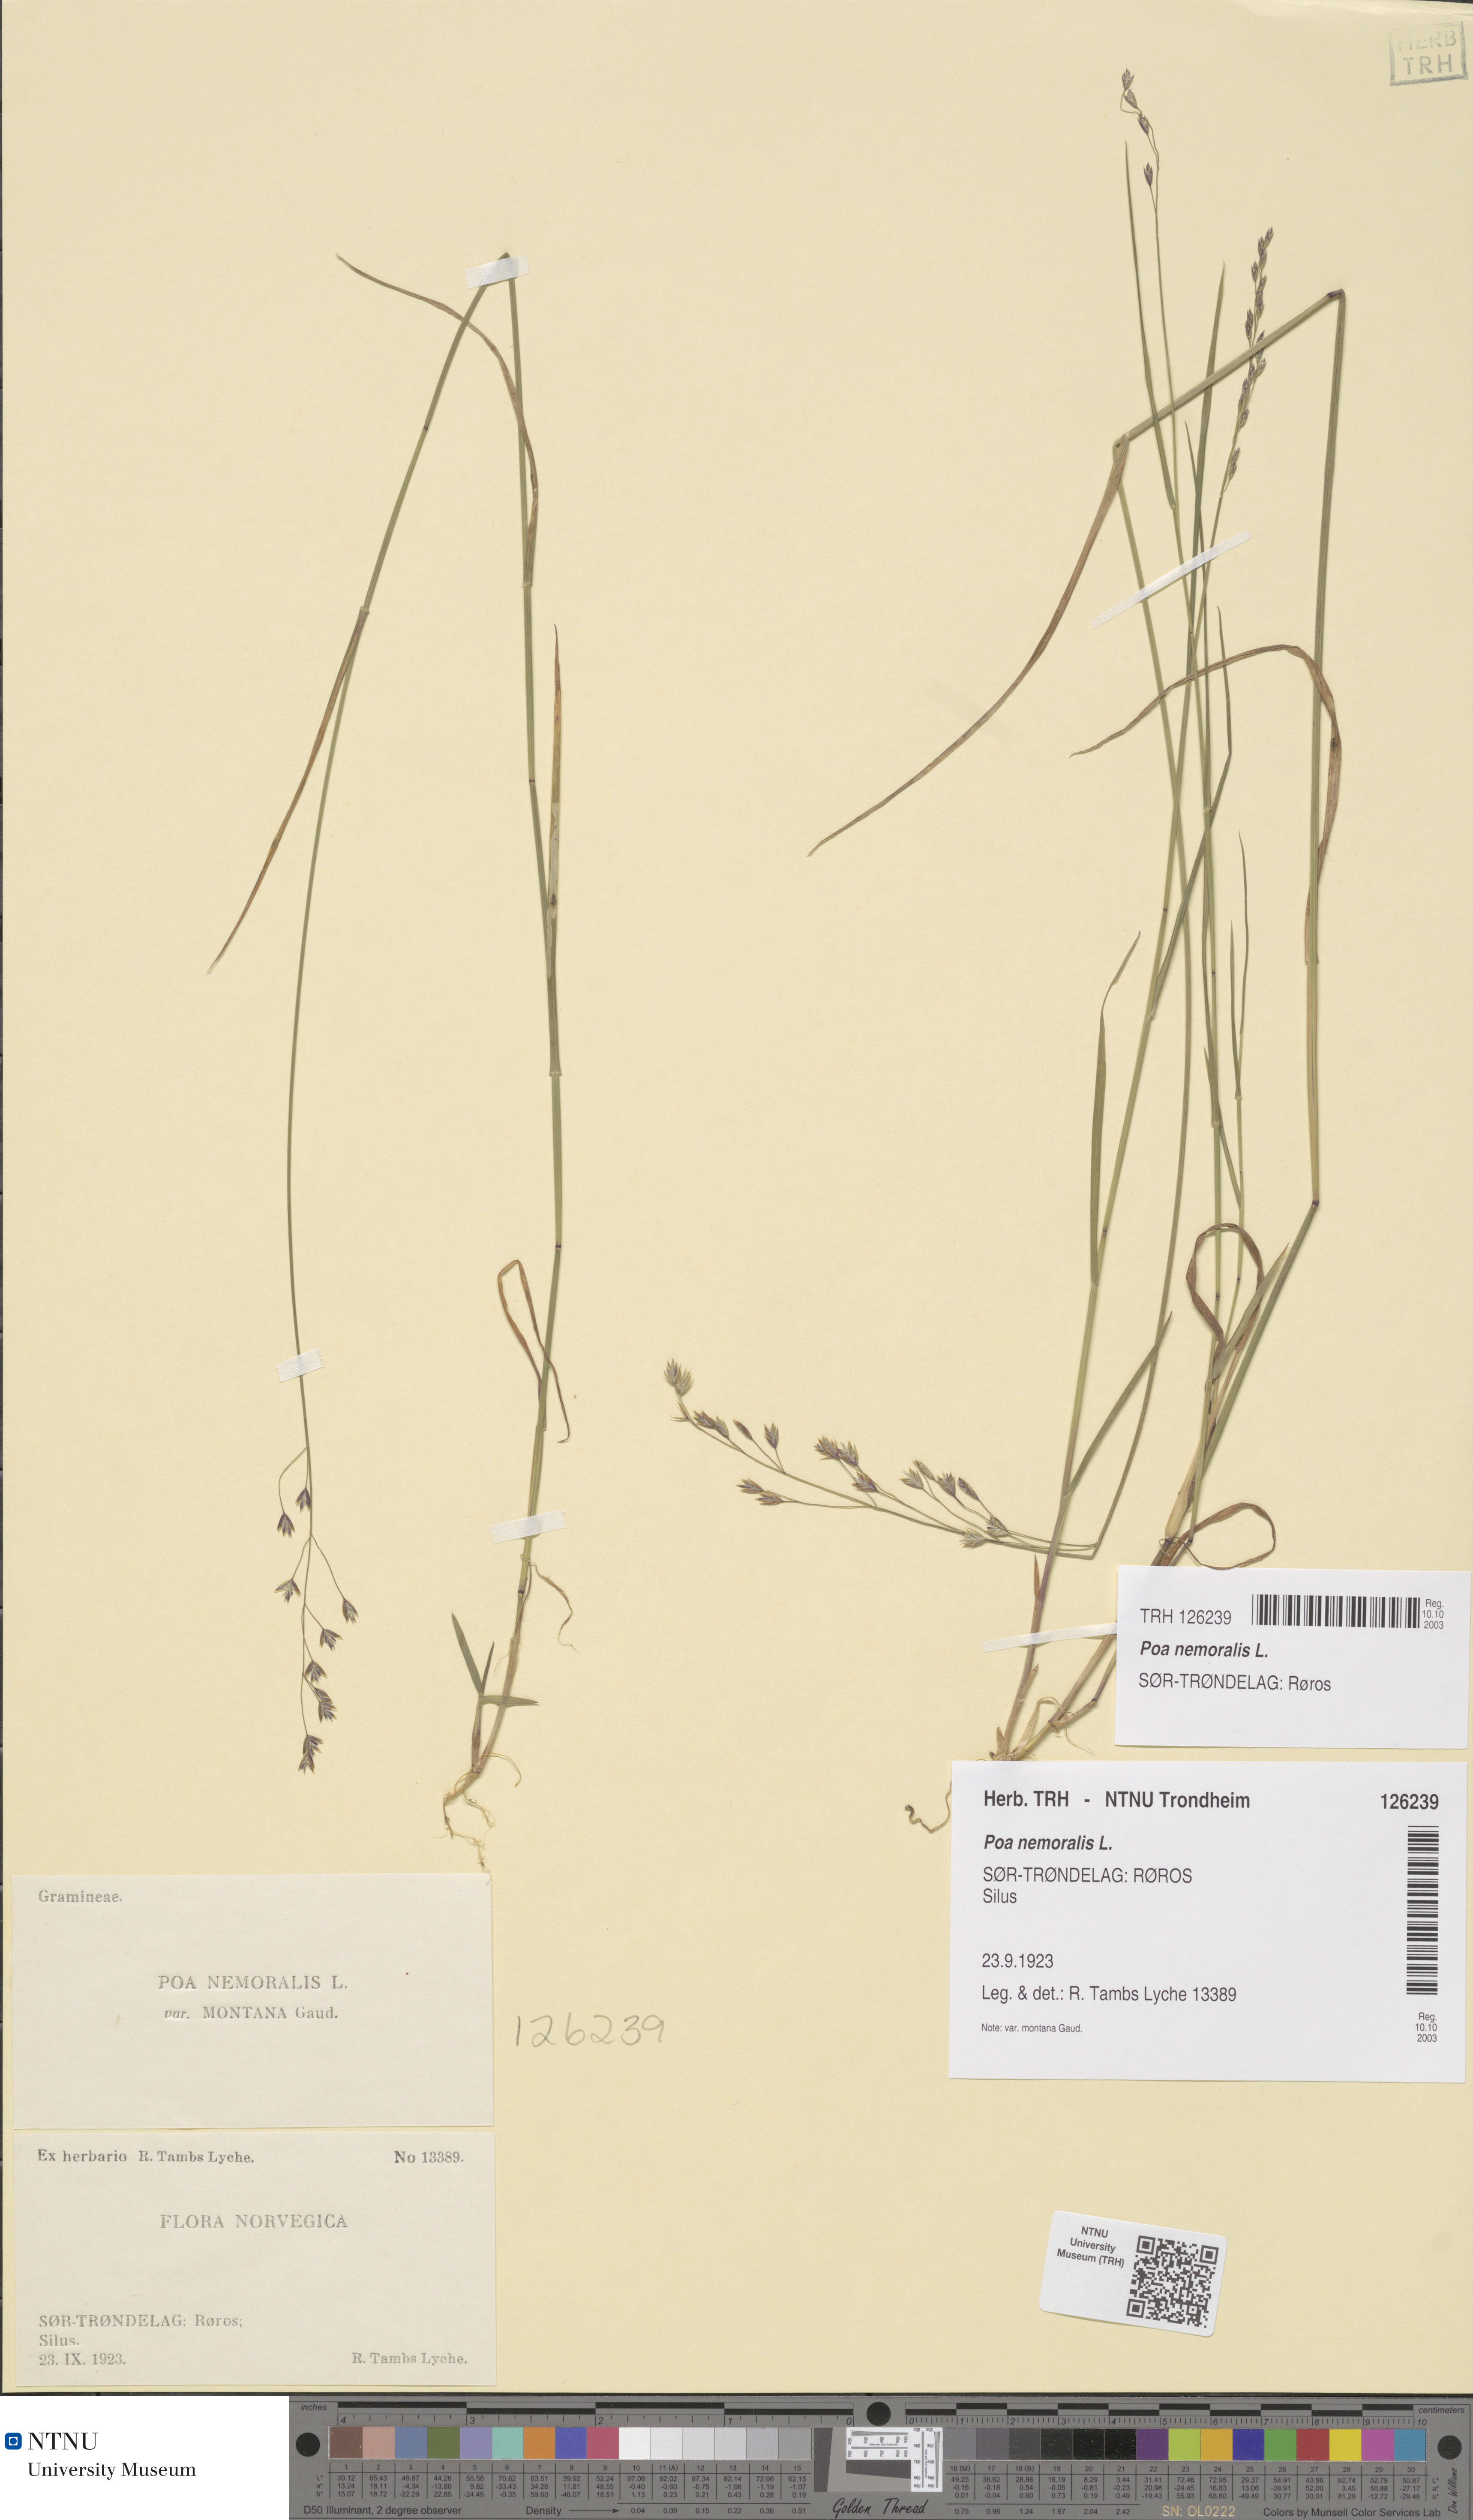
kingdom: Plantae
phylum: Tracheophyta
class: Liliopsida
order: Poales
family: Poaceae
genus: Poa
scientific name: Poa nemoralis
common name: Wood bluegrass
